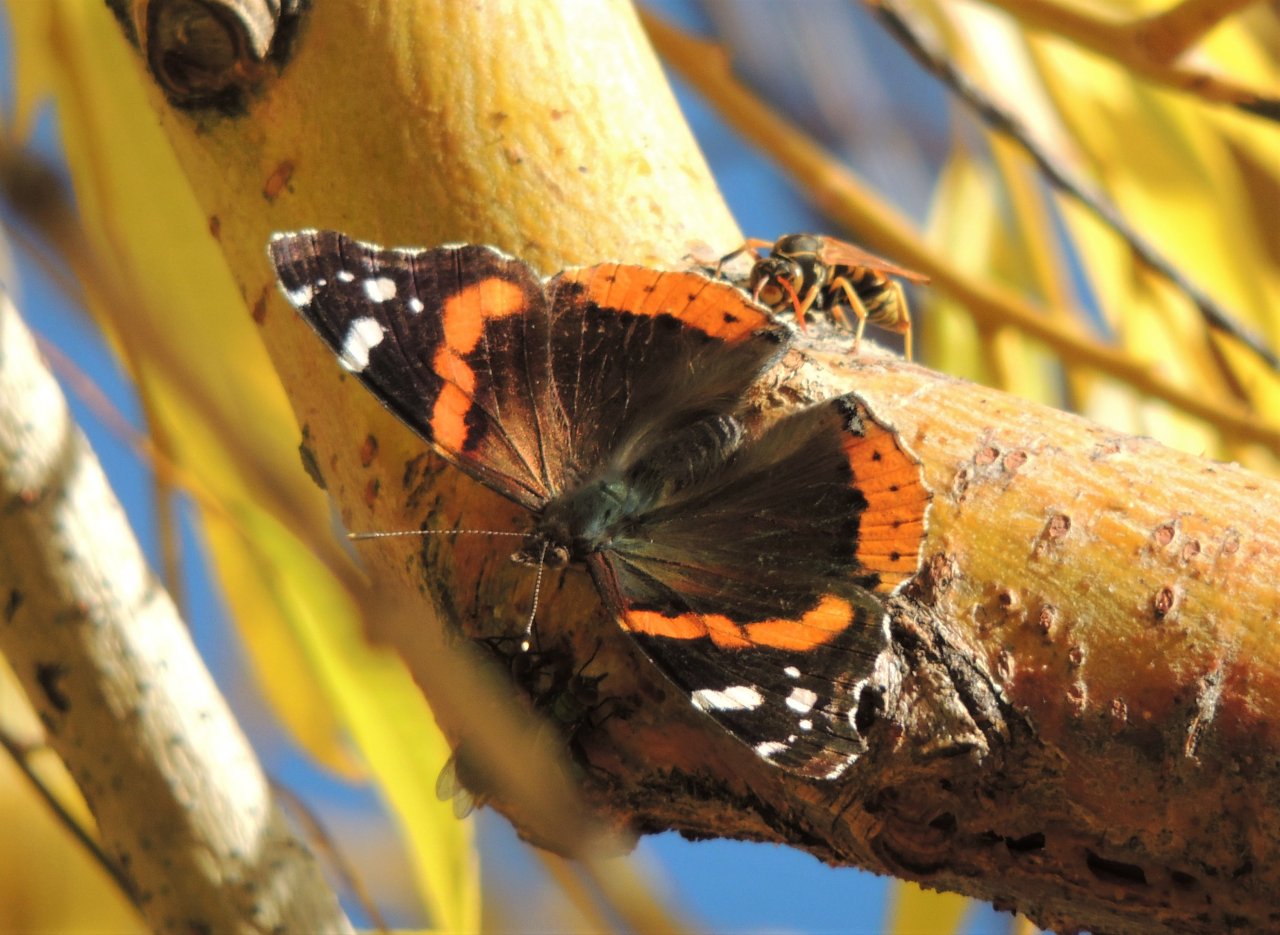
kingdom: Animalia
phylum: Arthropoda
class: Insecta
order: Lepidoptera
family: Nymphalidae
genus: Vanessa
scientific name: Vanessa atalanta
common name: Red Admiral
